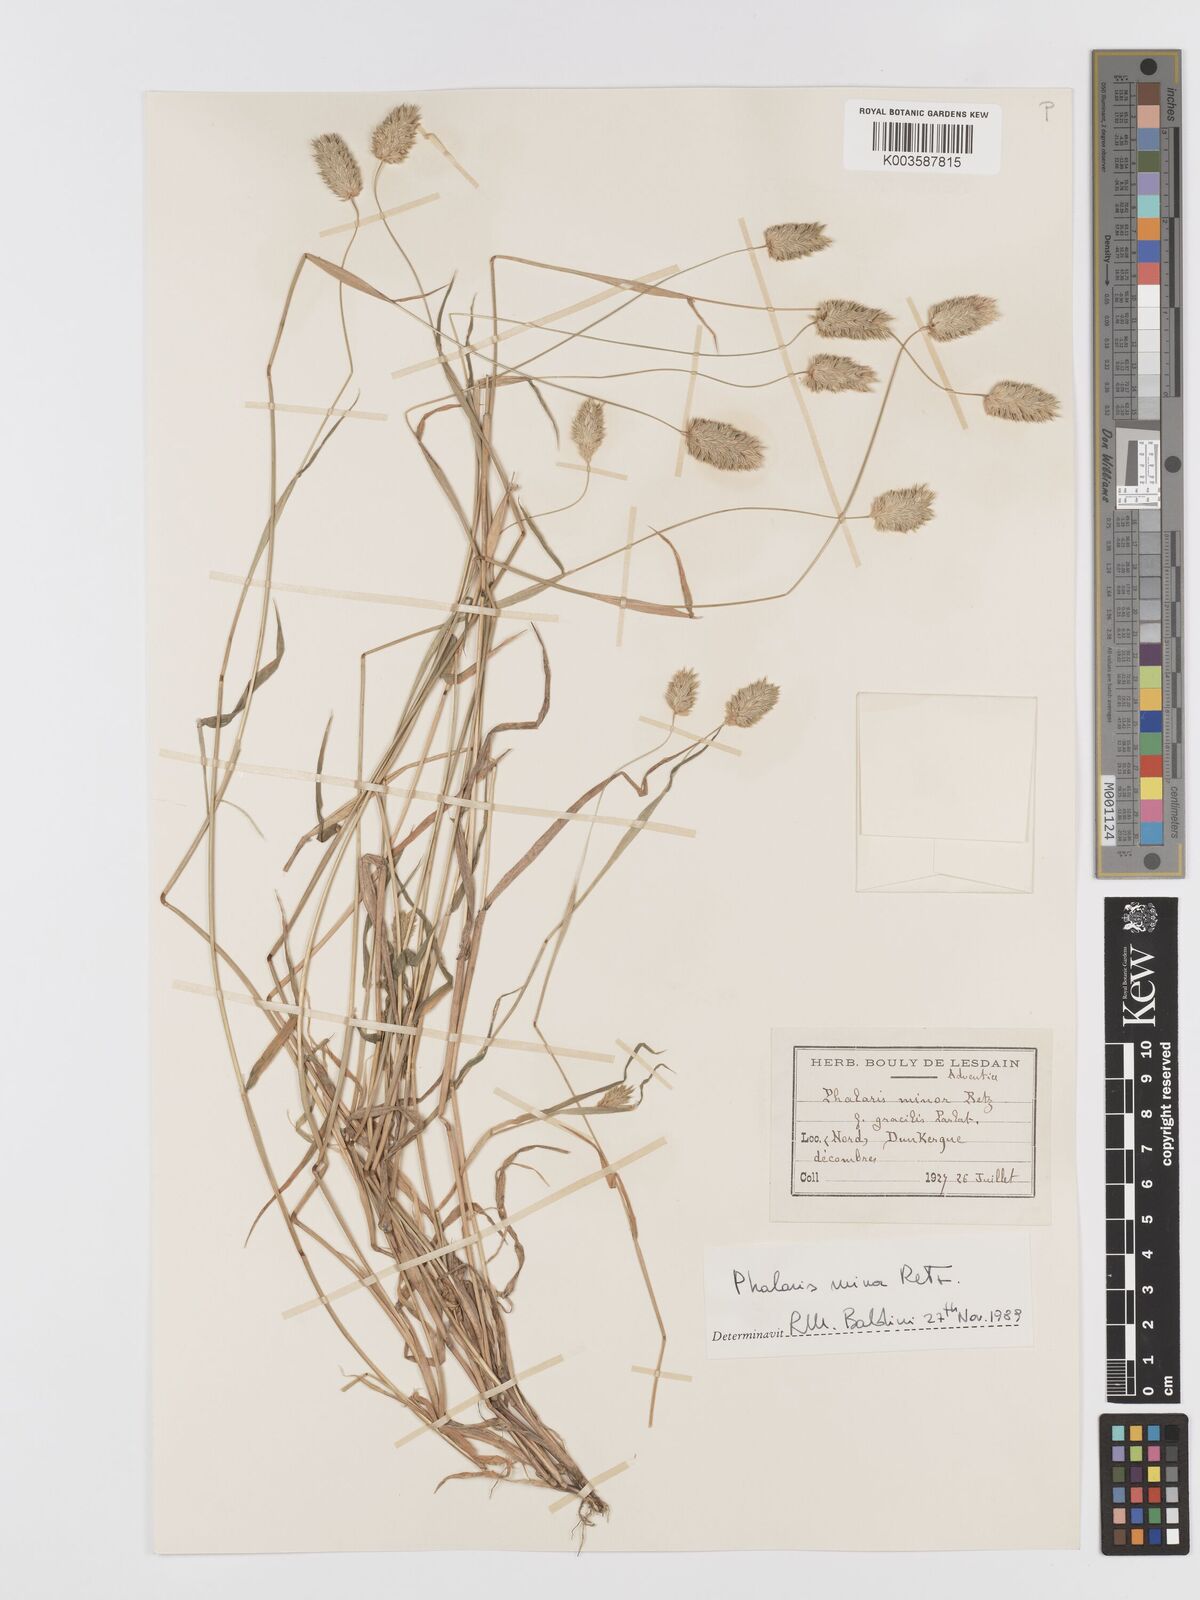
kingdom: Plantae
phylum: Tracheophyta
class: Liliopsida
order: Poales
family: Poaceae
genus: Phalaris
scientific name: Phalaris minor
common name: Littleseed canarygrass
